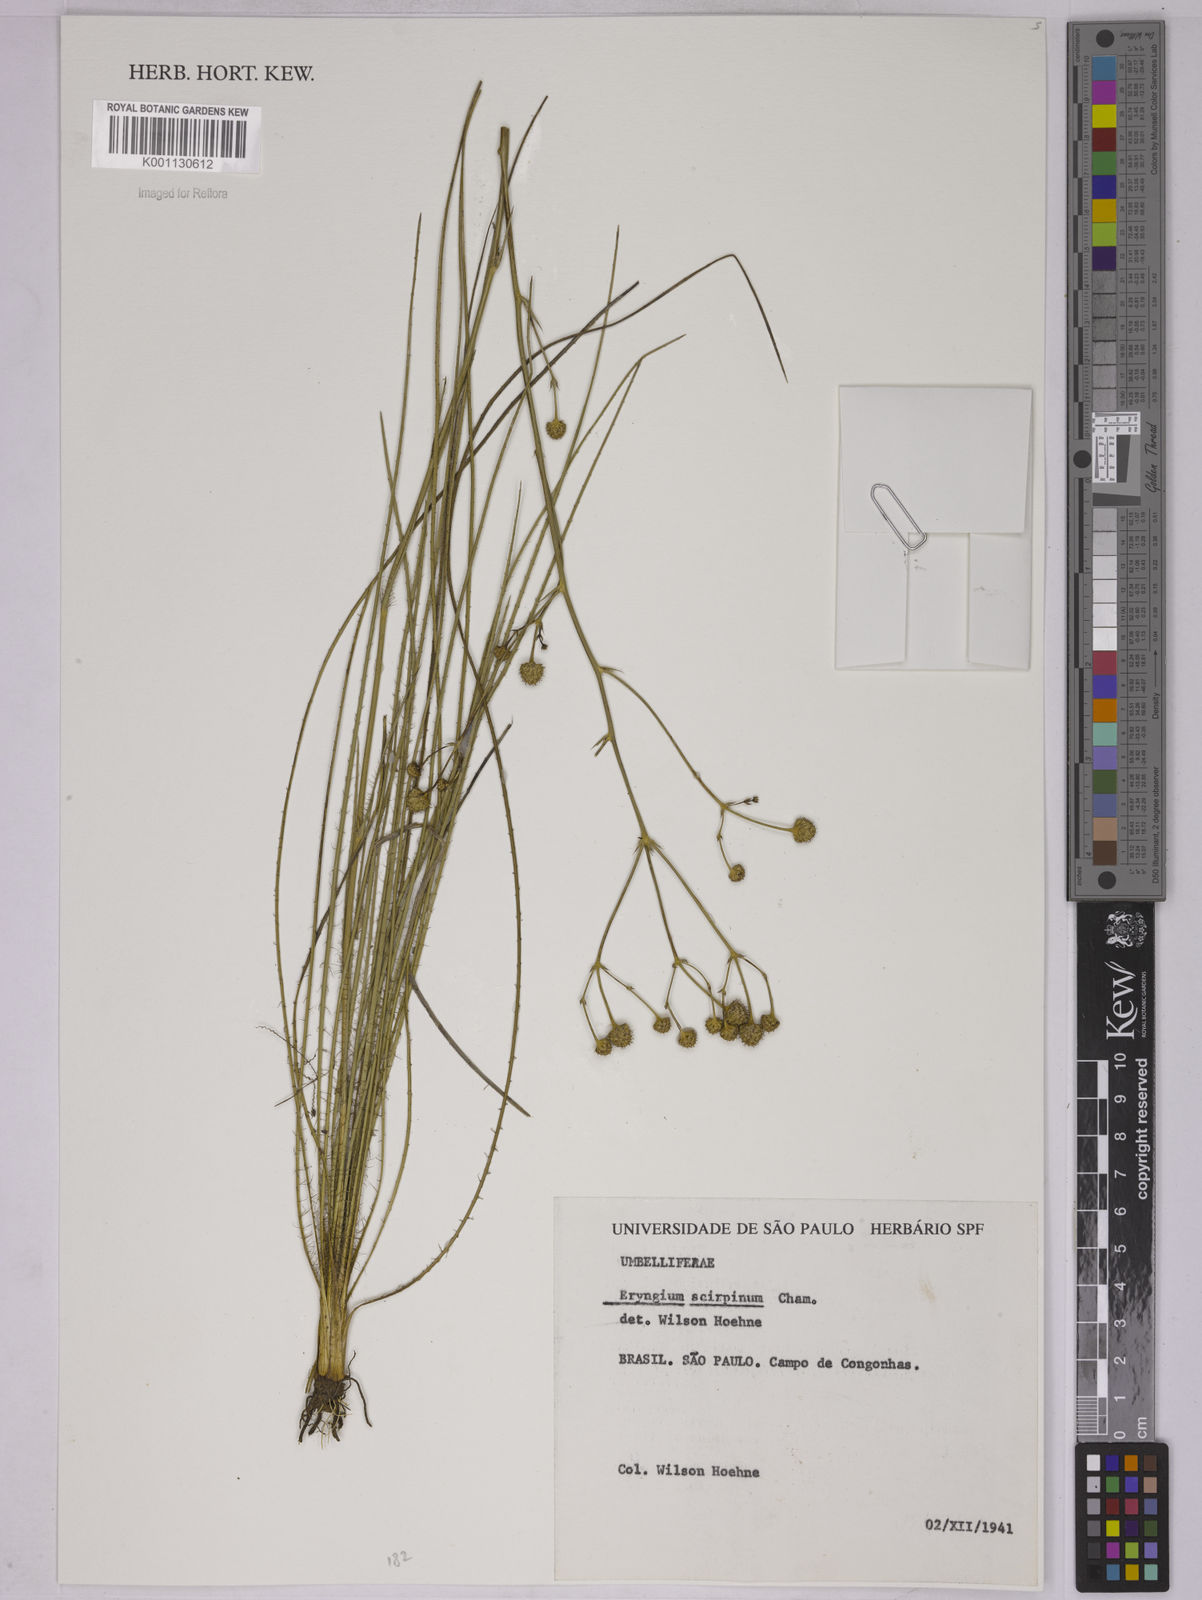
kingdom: Plantae
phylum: Tracheophyta
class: Magnoliopsida
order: Apiales
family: Apiaceae
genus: Eryngium
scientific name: Eryngium scirpinum
